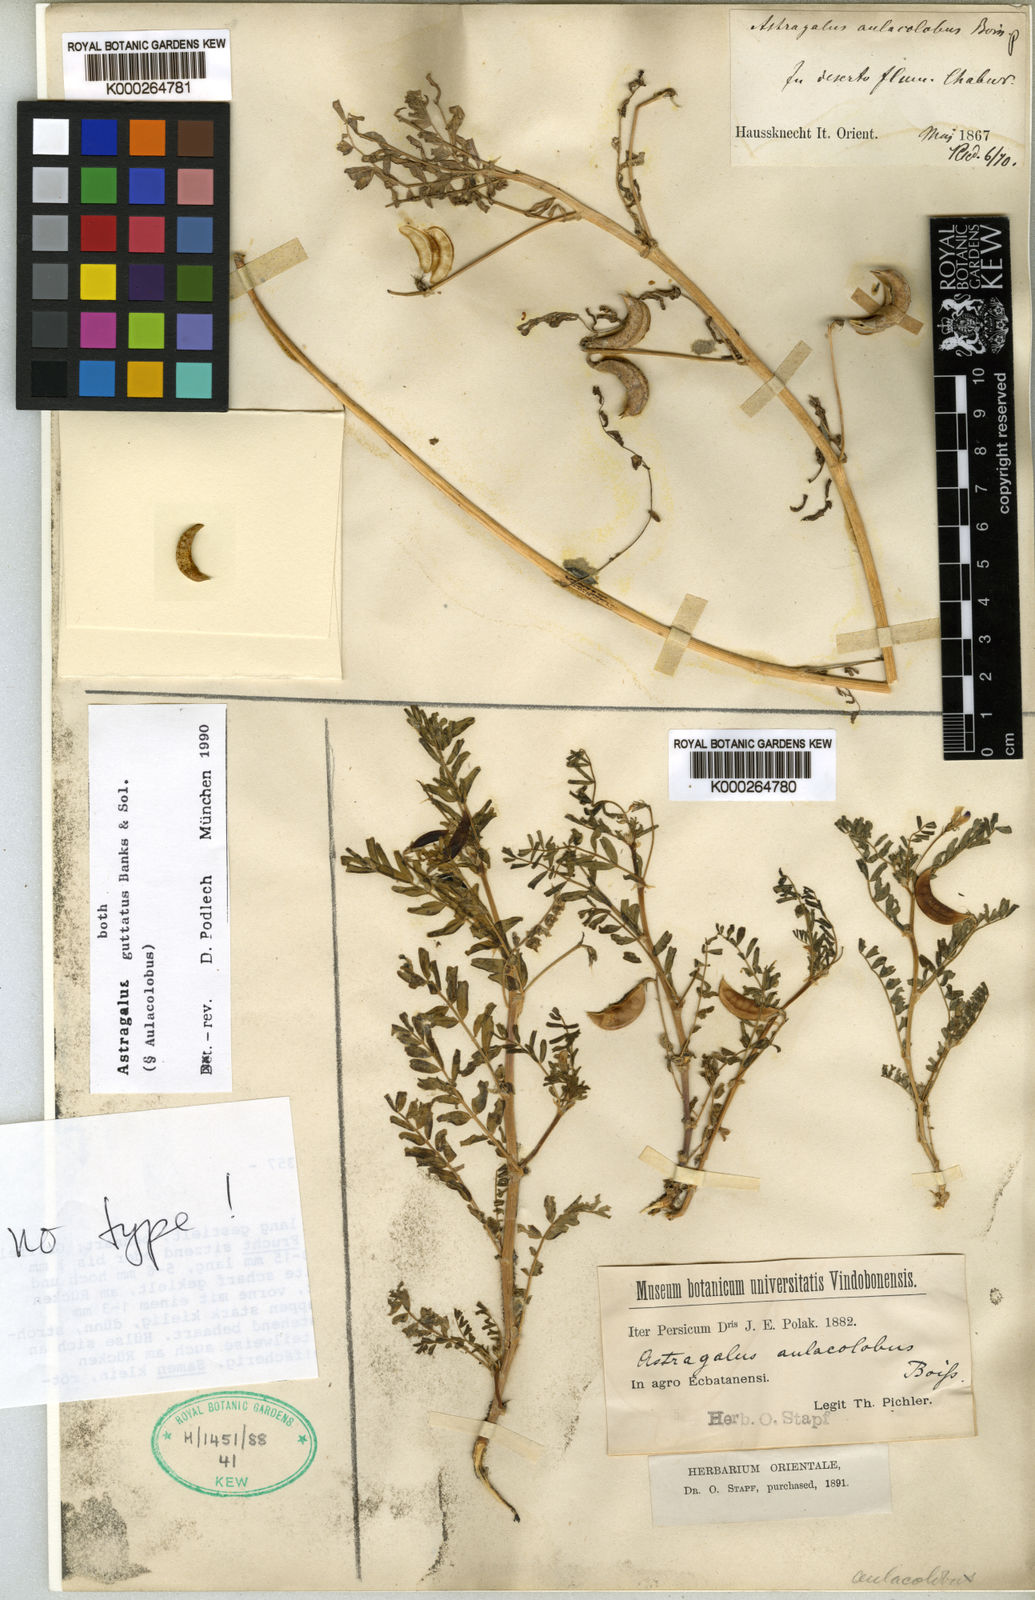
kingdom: Plantae
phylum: Tracheophyta
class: Magnoliopsida
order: Fabales
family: Fabaceae
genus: Astragalus
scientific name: Astragalus guttatus
